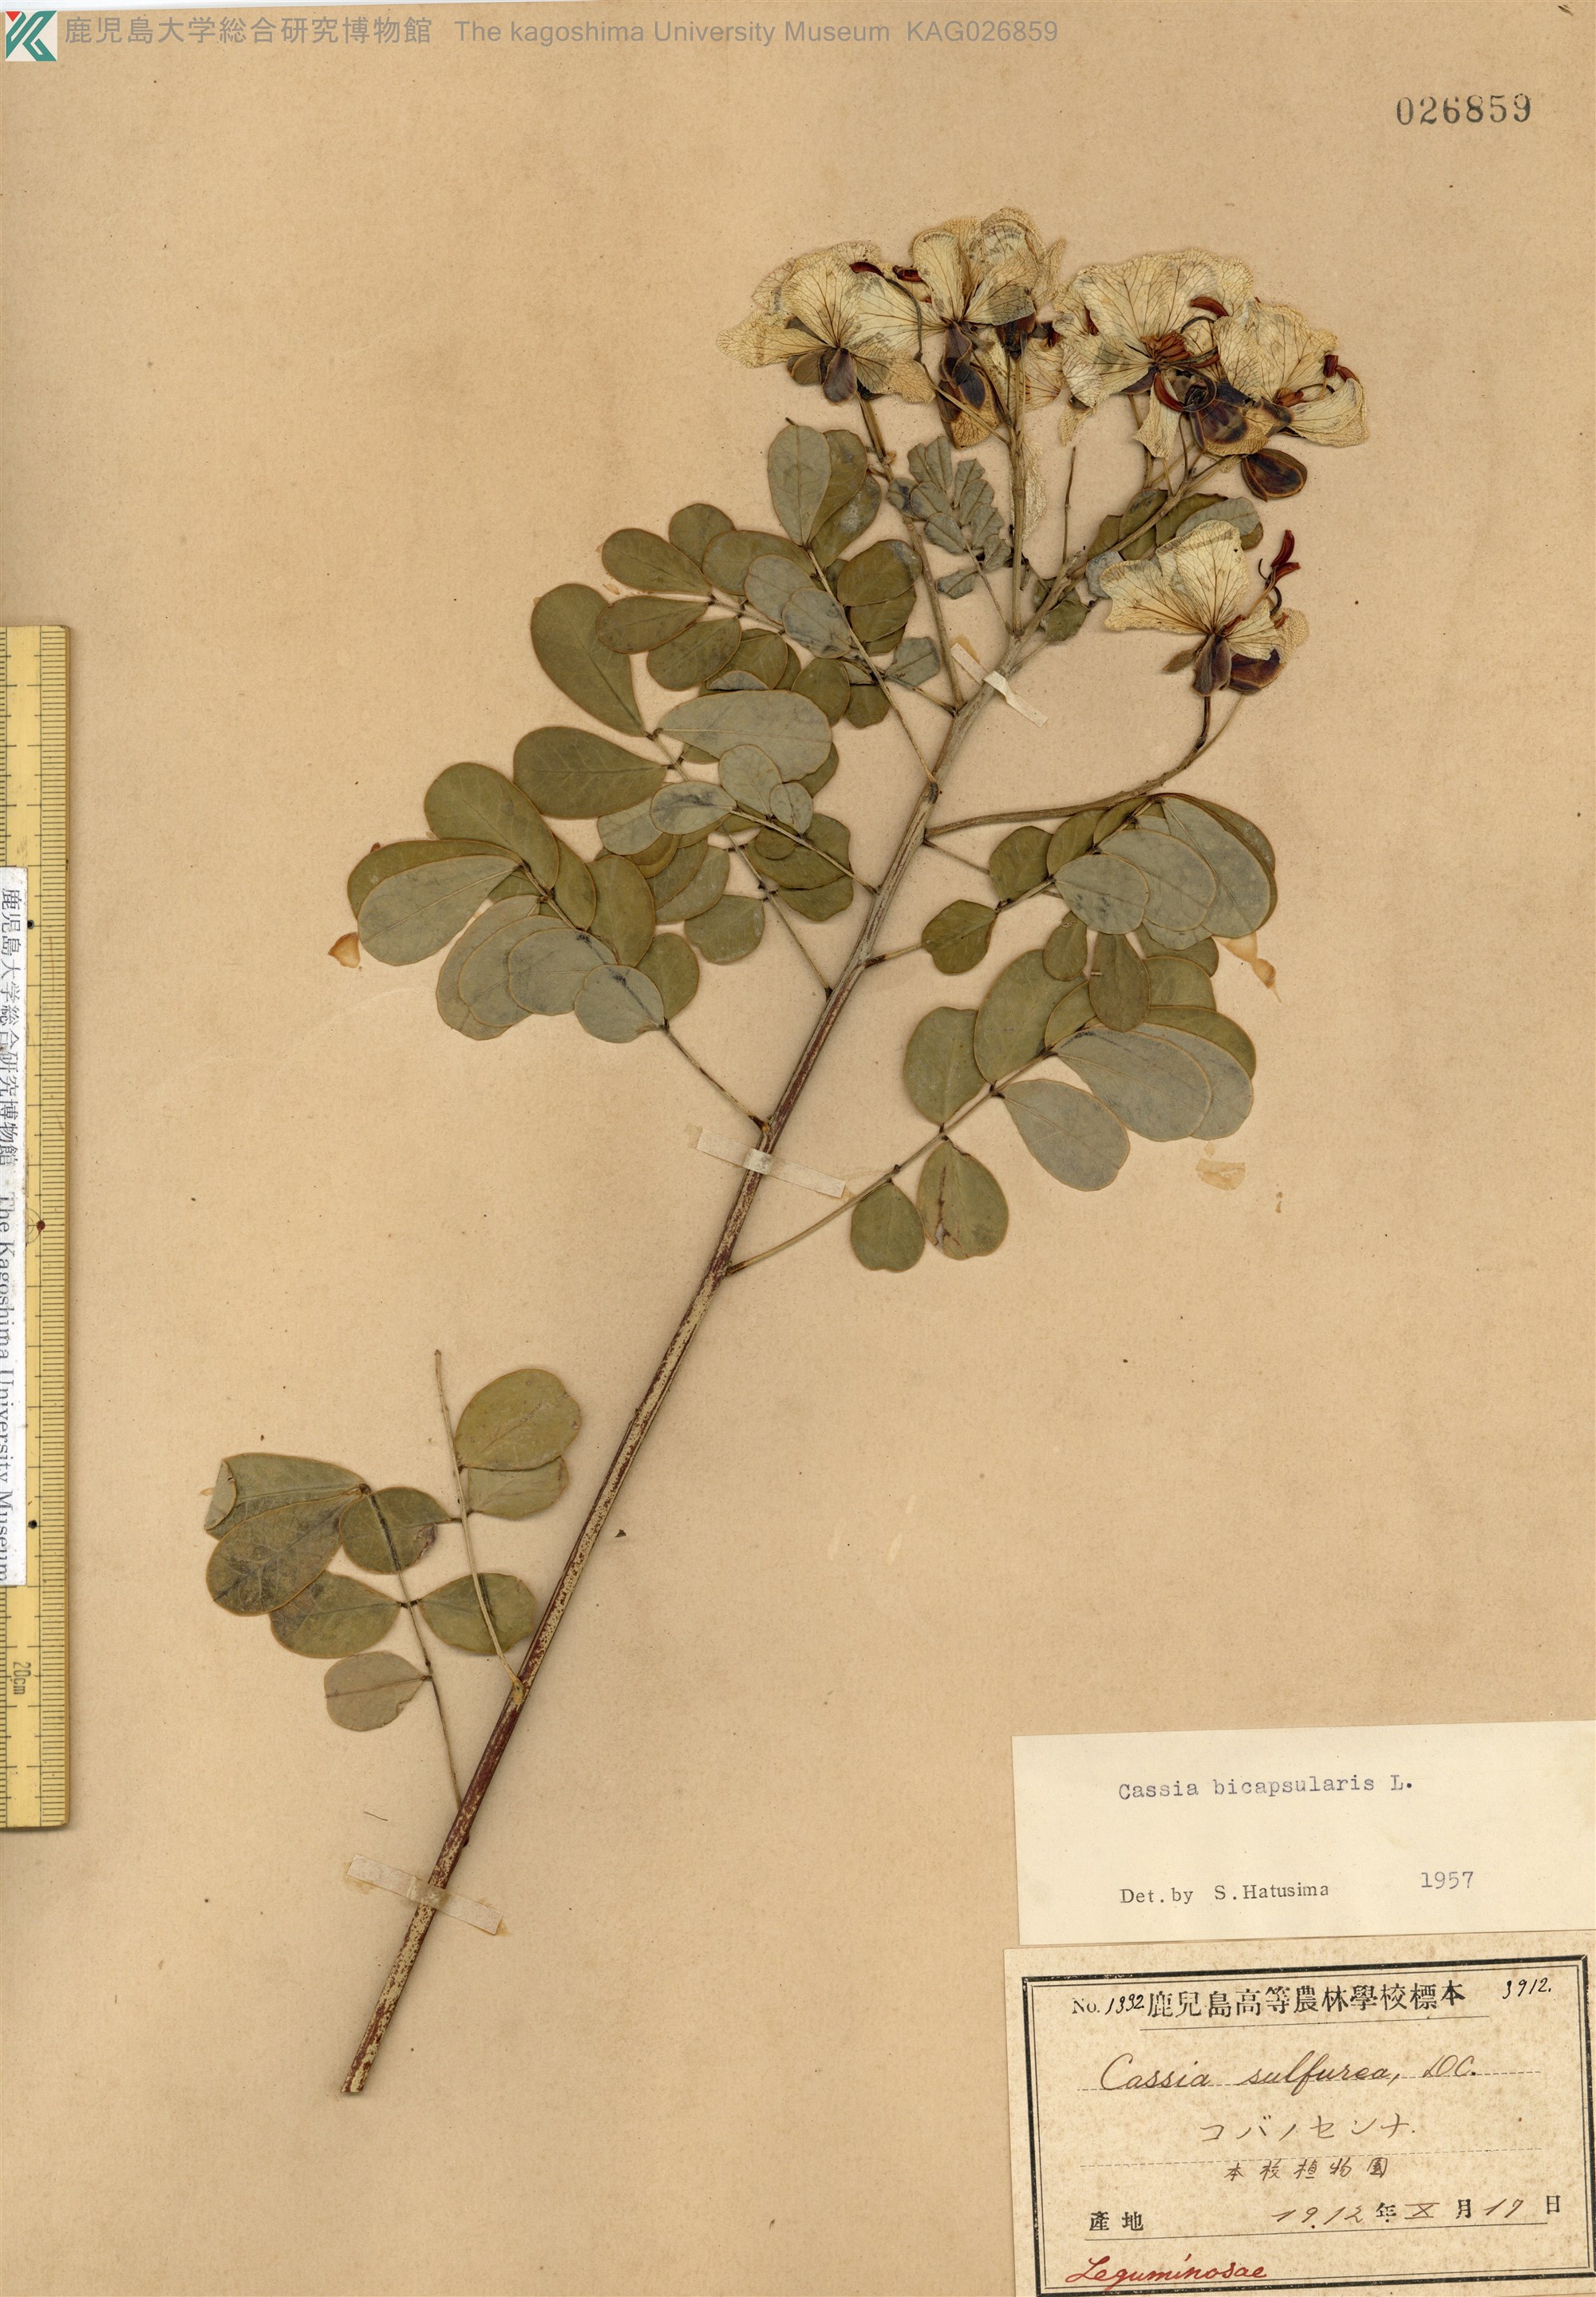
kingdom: Plantae
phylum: Tracheophyta
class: Magnoliopsida
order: Fabales
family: Fabaceae
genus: Cassia
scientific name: Cassia
